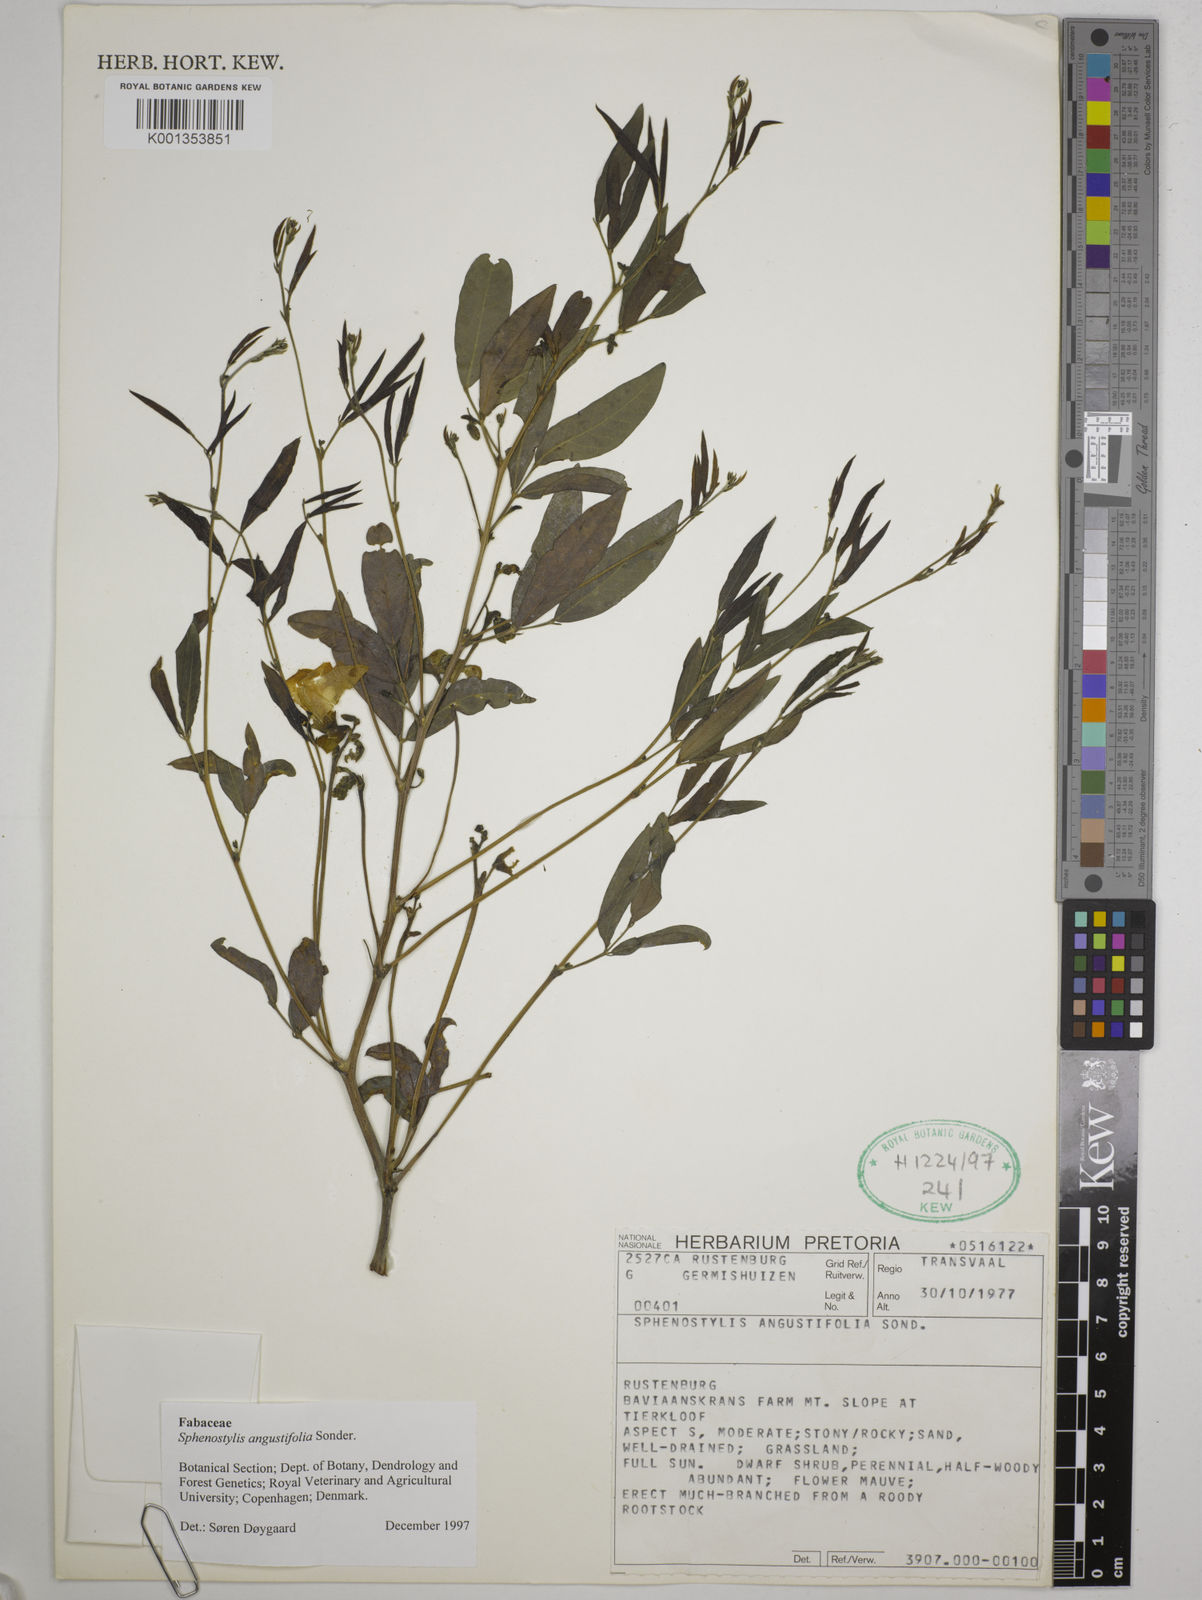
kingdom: Plantae
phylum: Tracheophyta
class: Magnoliopsida
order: Fabales
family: Fabaceae
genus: Sphenostylis
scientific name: Sphenostylis angustifolia
